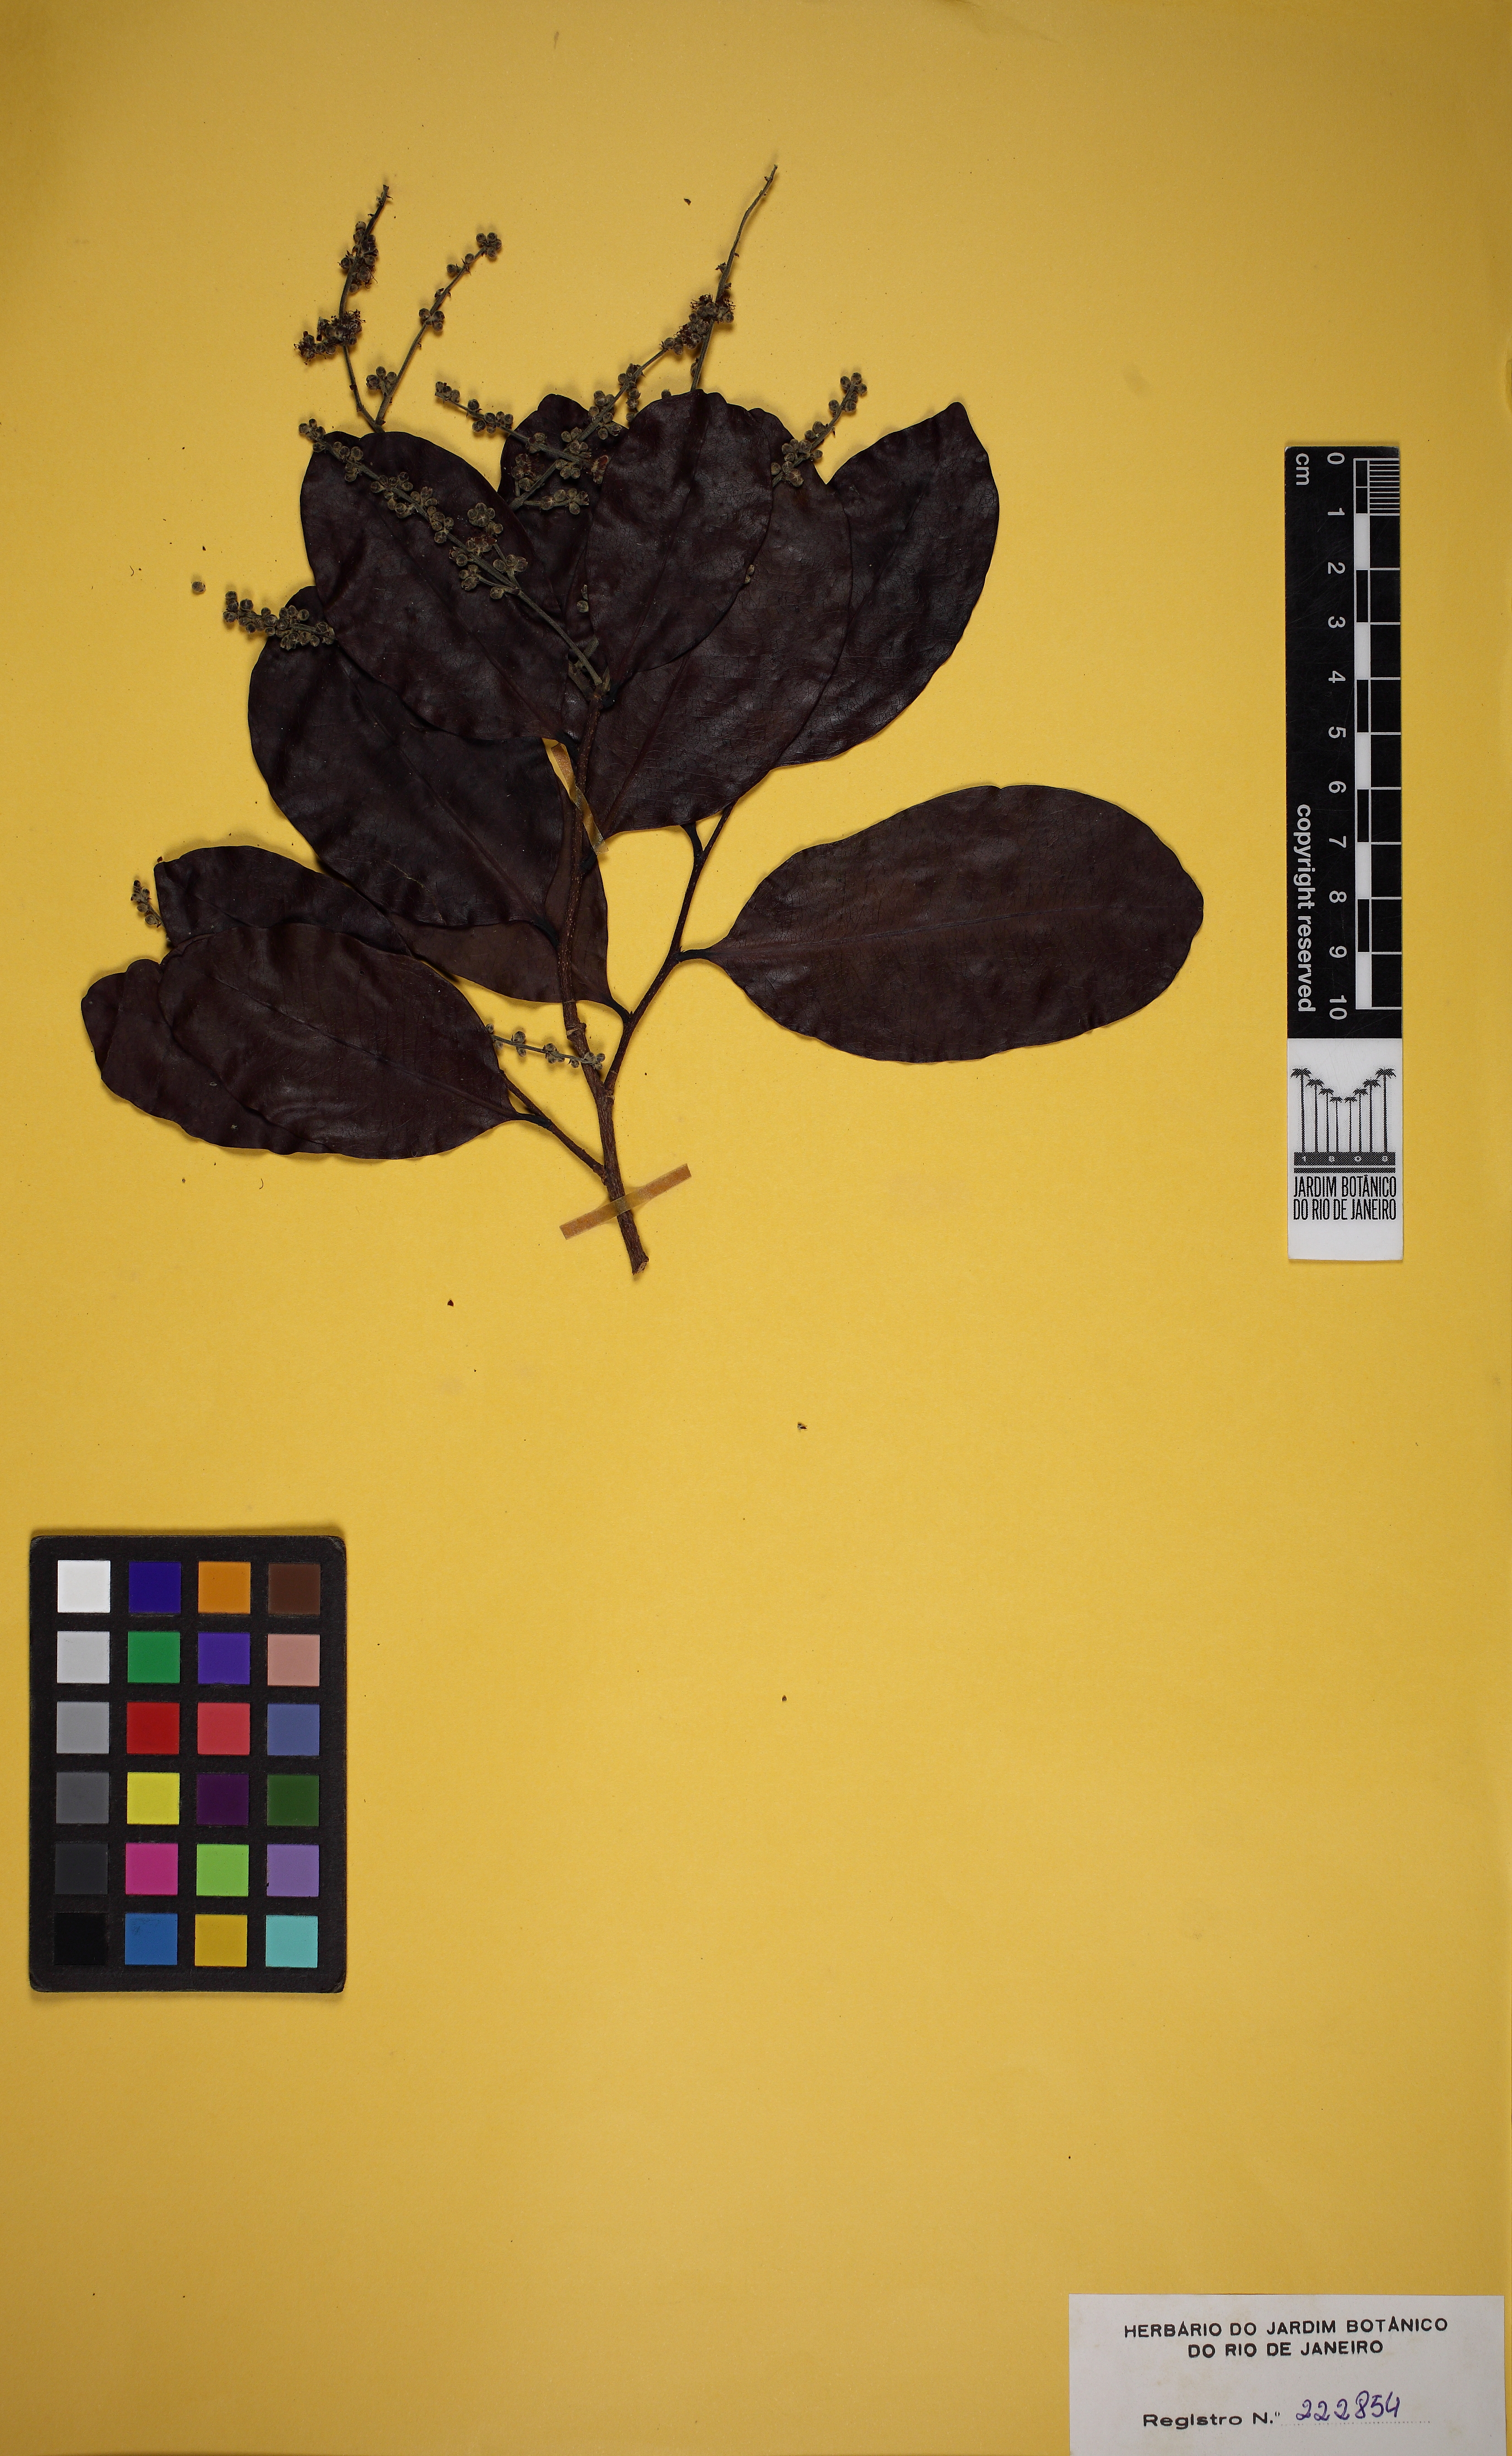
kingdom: Plantae
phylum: Tracheophyta
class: Magnoliopsida
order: Malpighiales
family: Chrysobalanaceae
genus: Moquilea
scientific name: Moquilea egleri
